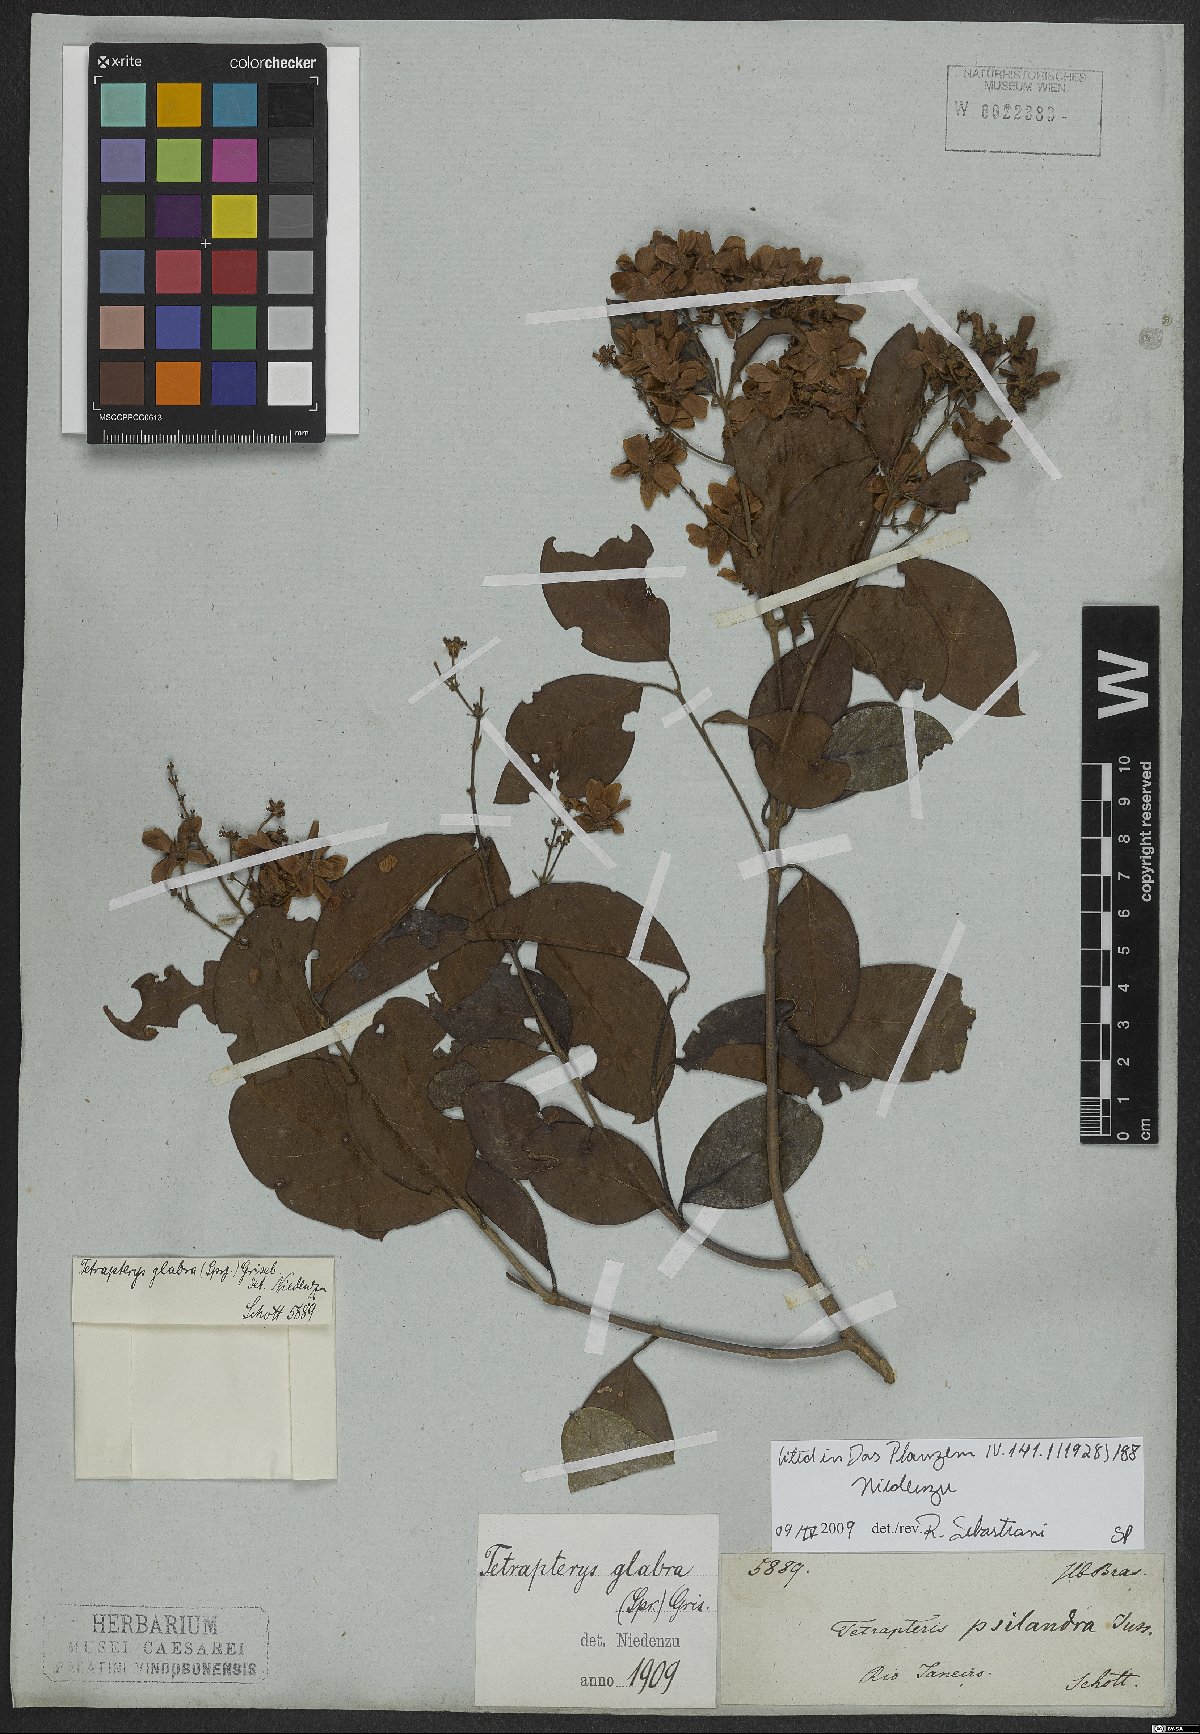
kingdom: Plantae
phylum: Tracheophyta
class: Magnoliopsida
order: Malpighiales
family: Malpighiaceae
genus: Niedenzuella
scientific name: Niedenzuella glabra
